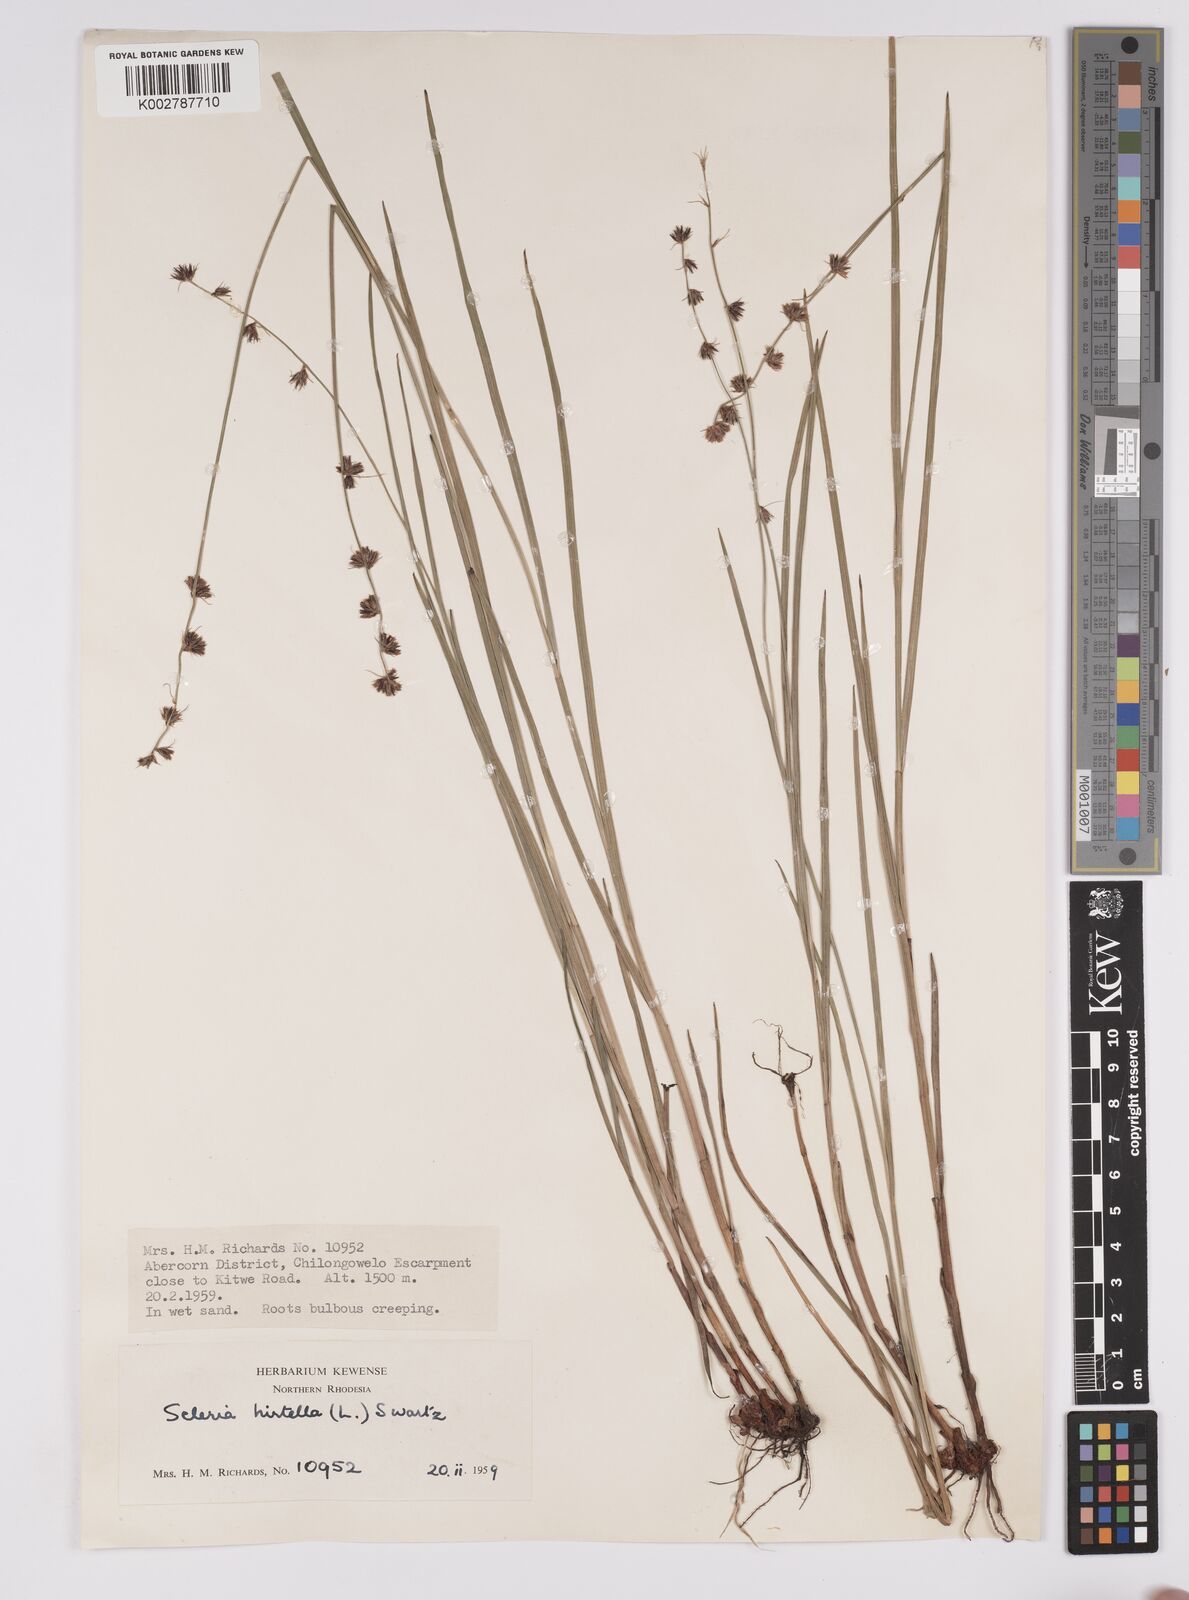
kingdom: Plantae
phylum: Tracheophyta
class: Liliopsida
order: Poales
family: Cyperaceae
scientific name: Cyperaceae
